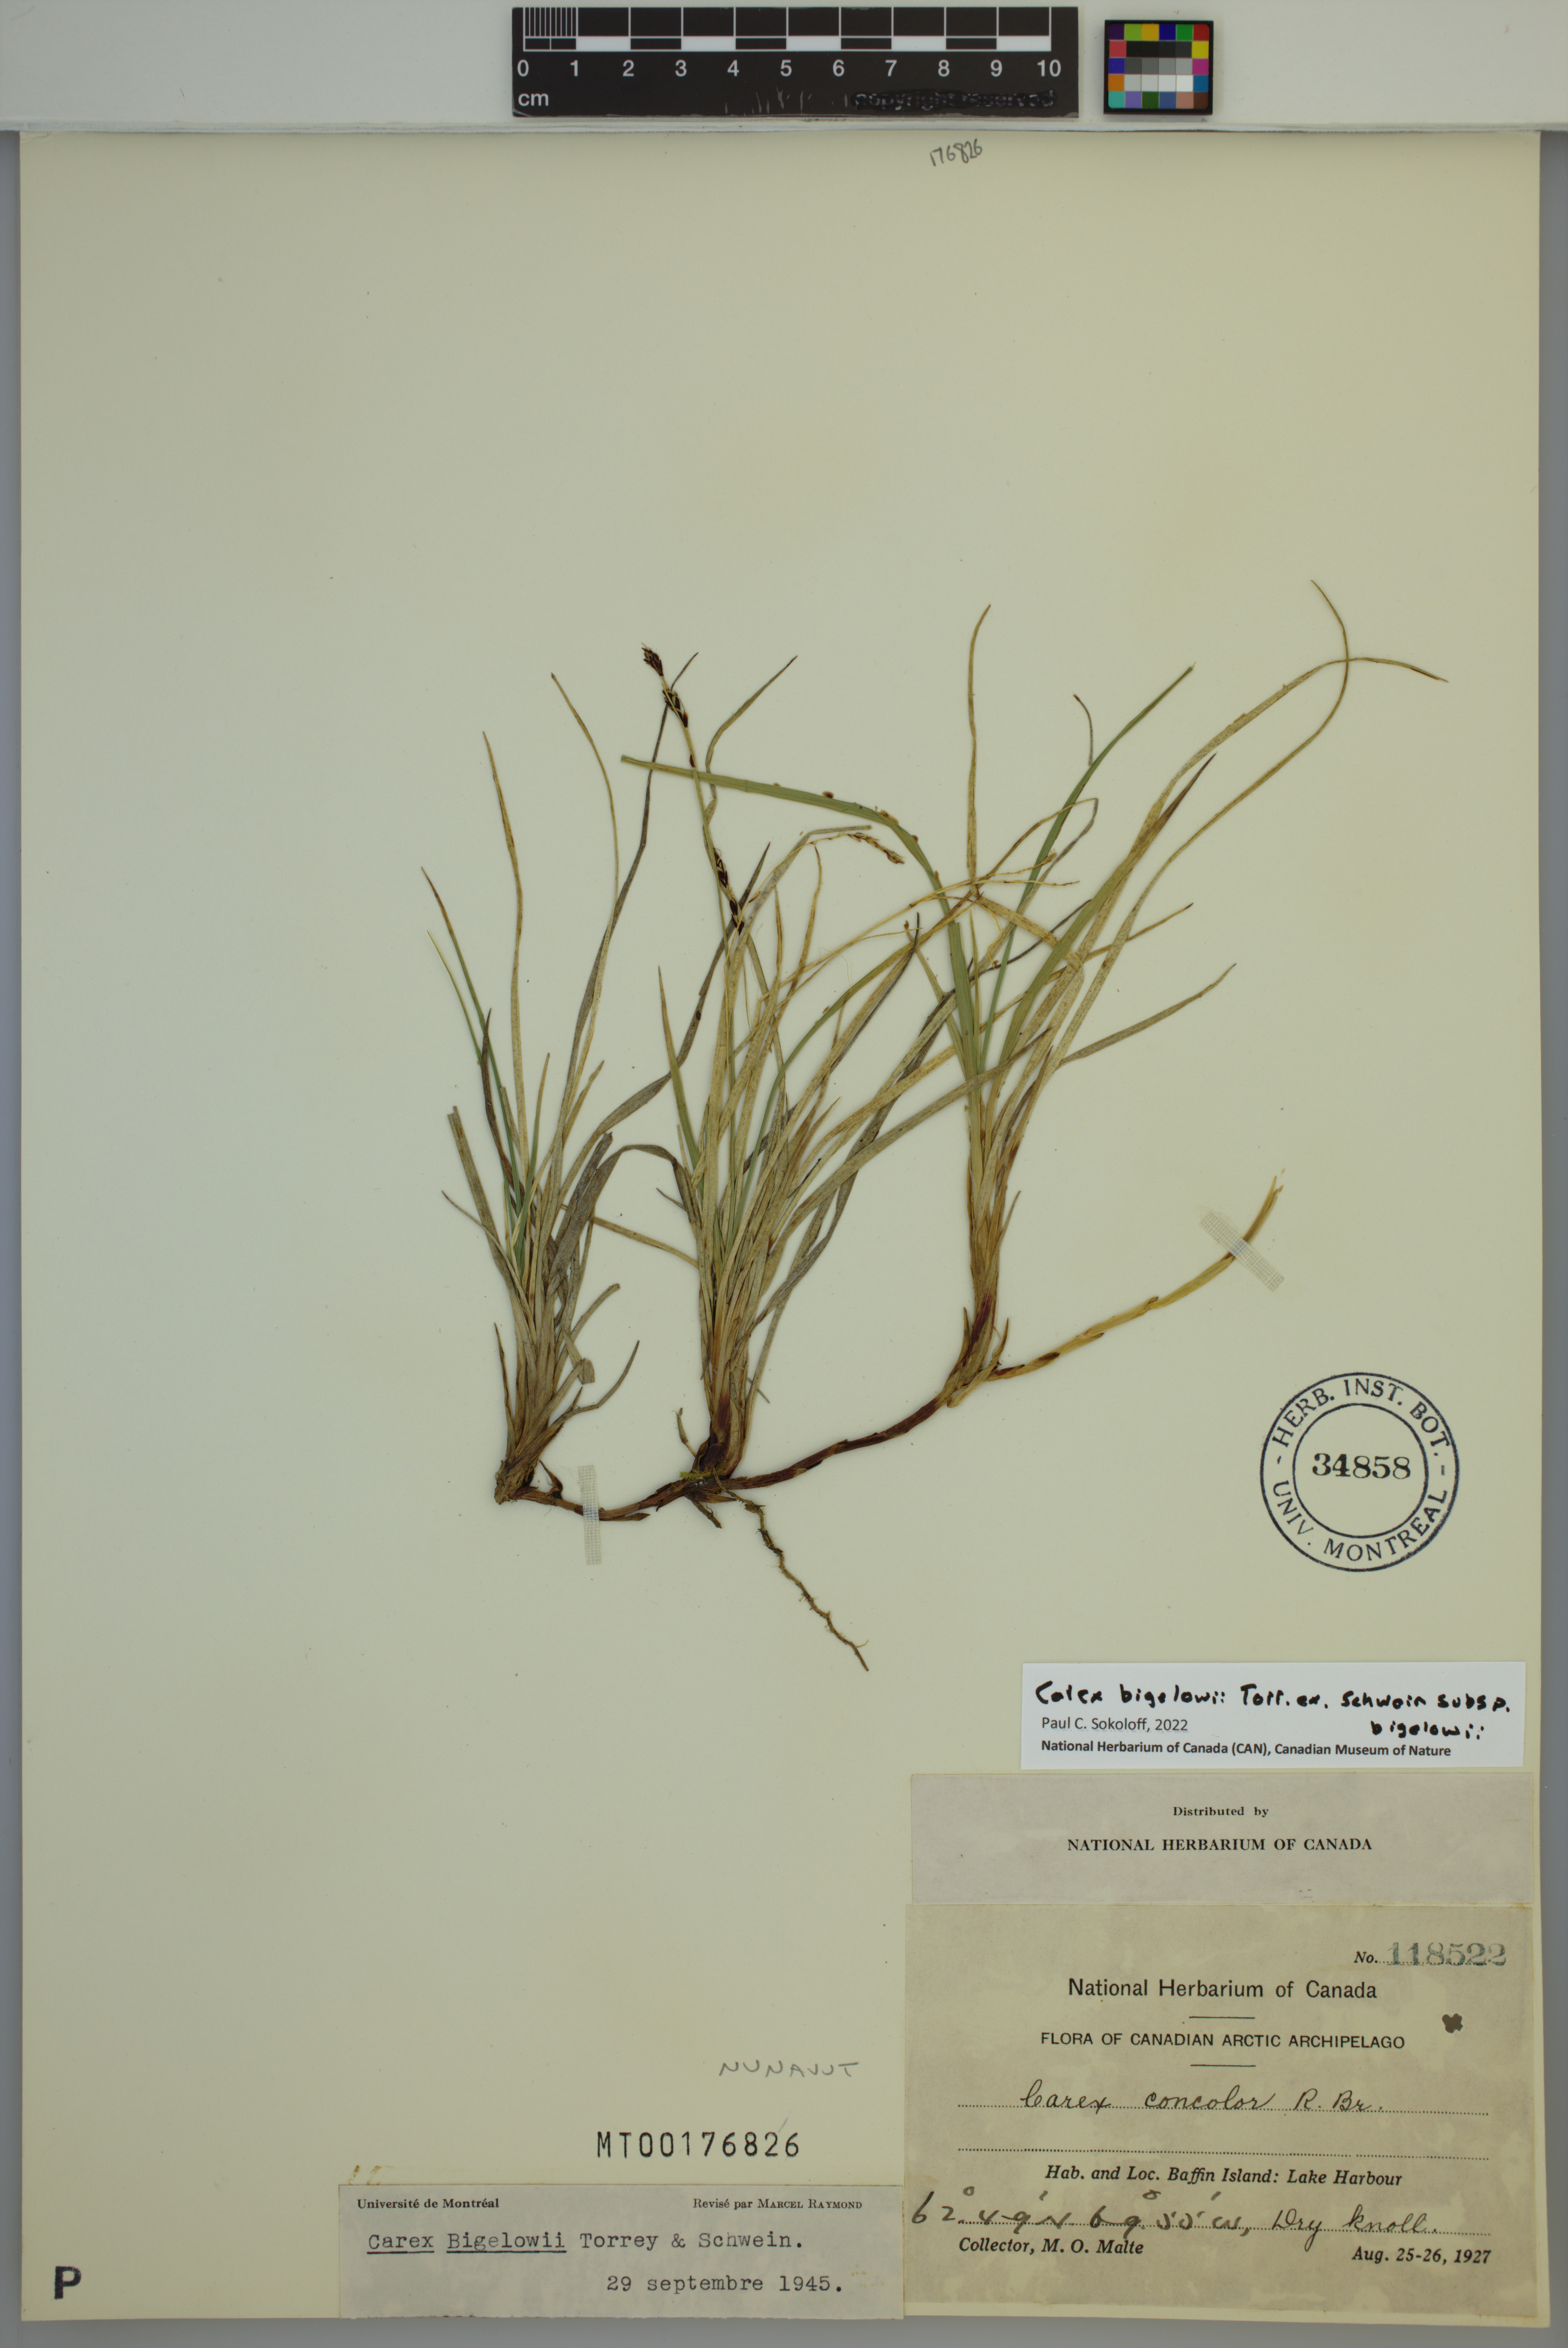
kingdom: Plantae
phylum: Tracheophyta
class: Liliopsida
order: Poales
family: Cyperaceae
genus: Carex
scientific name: Carex bigelowii
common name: Stiff sedge
